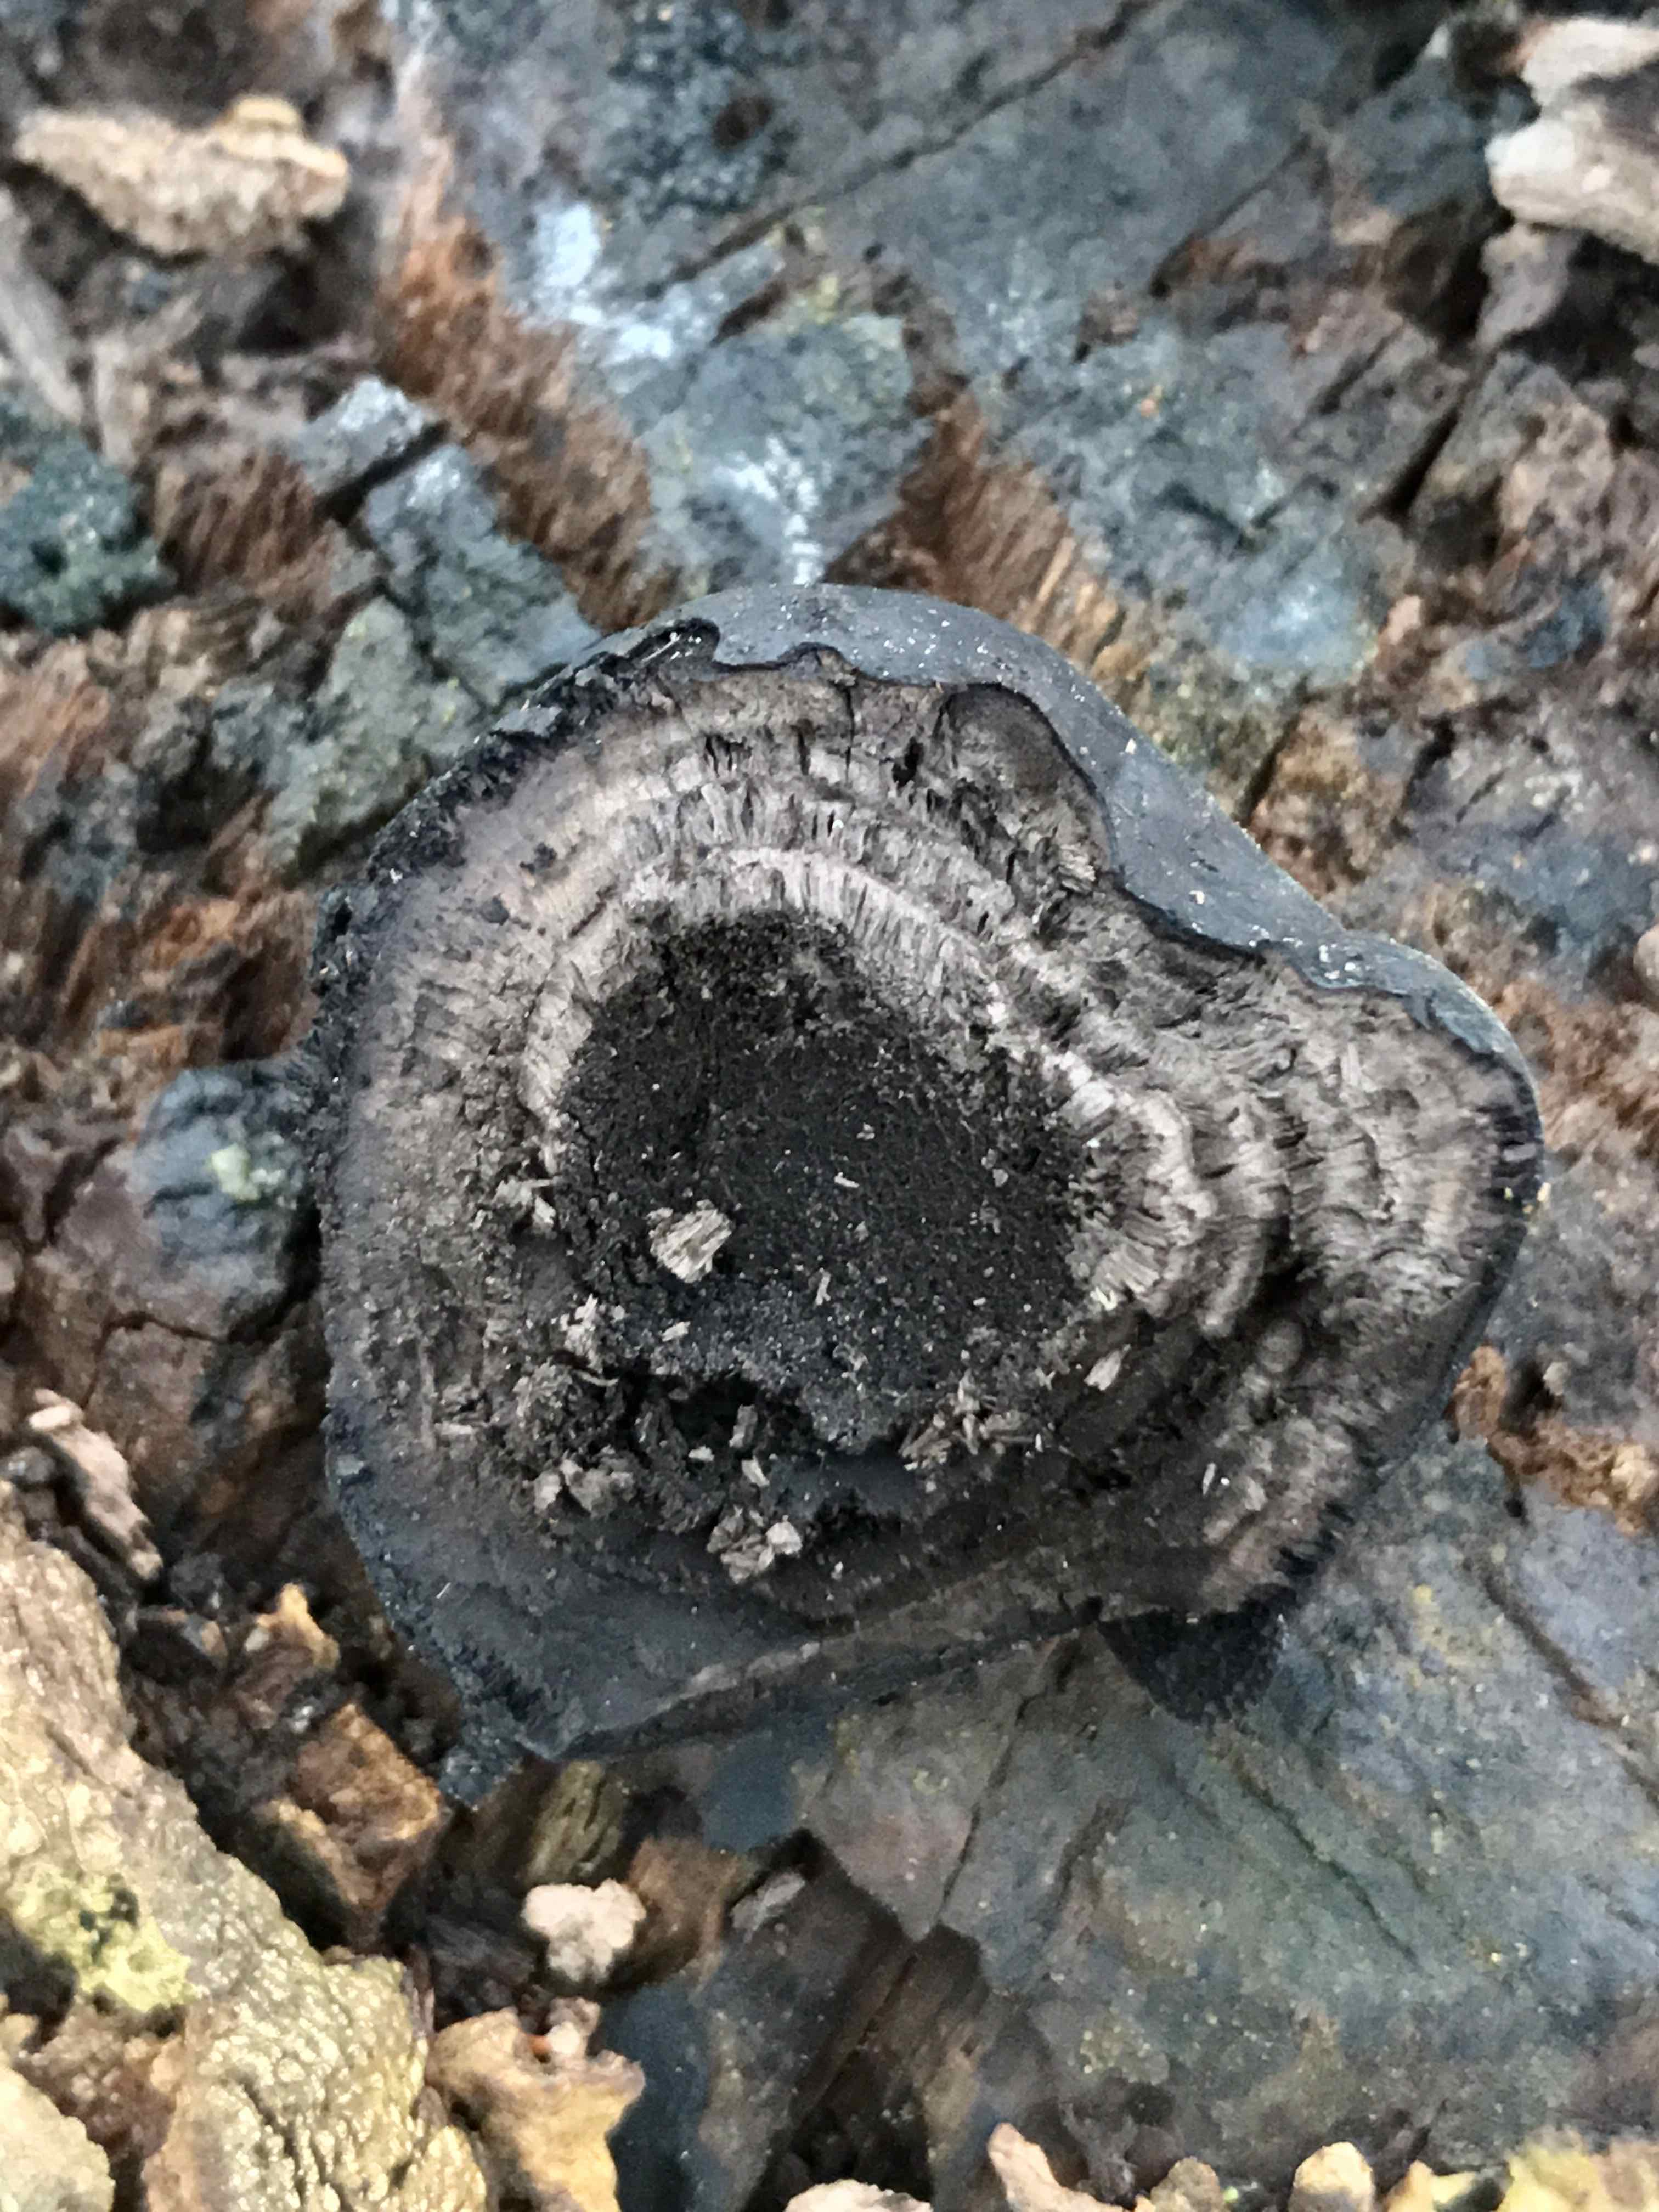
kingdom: Fungi
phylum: Ascomycota
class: Sordariomycetes
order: Xylariales
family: Hypoxylaceae
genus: Daldinia
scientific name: Daldinia concentrica
